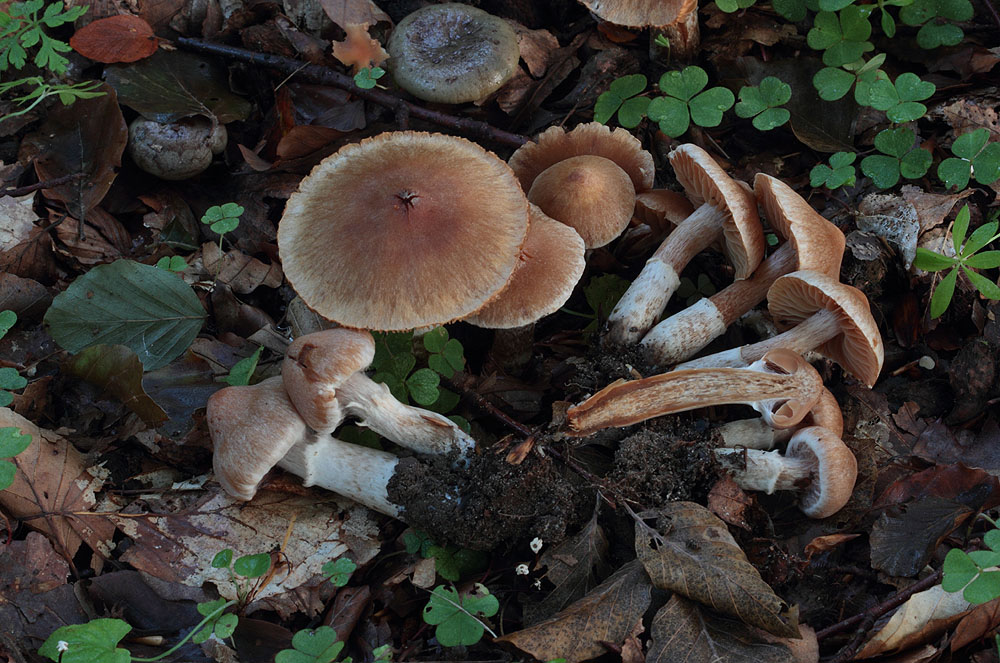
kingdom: Fungi
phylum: Basidiomycota
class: Agaricomycetes
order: Agaricales
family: Cortinariaceae
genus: Cortinarius
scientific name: Cortinarius hinnuleus
